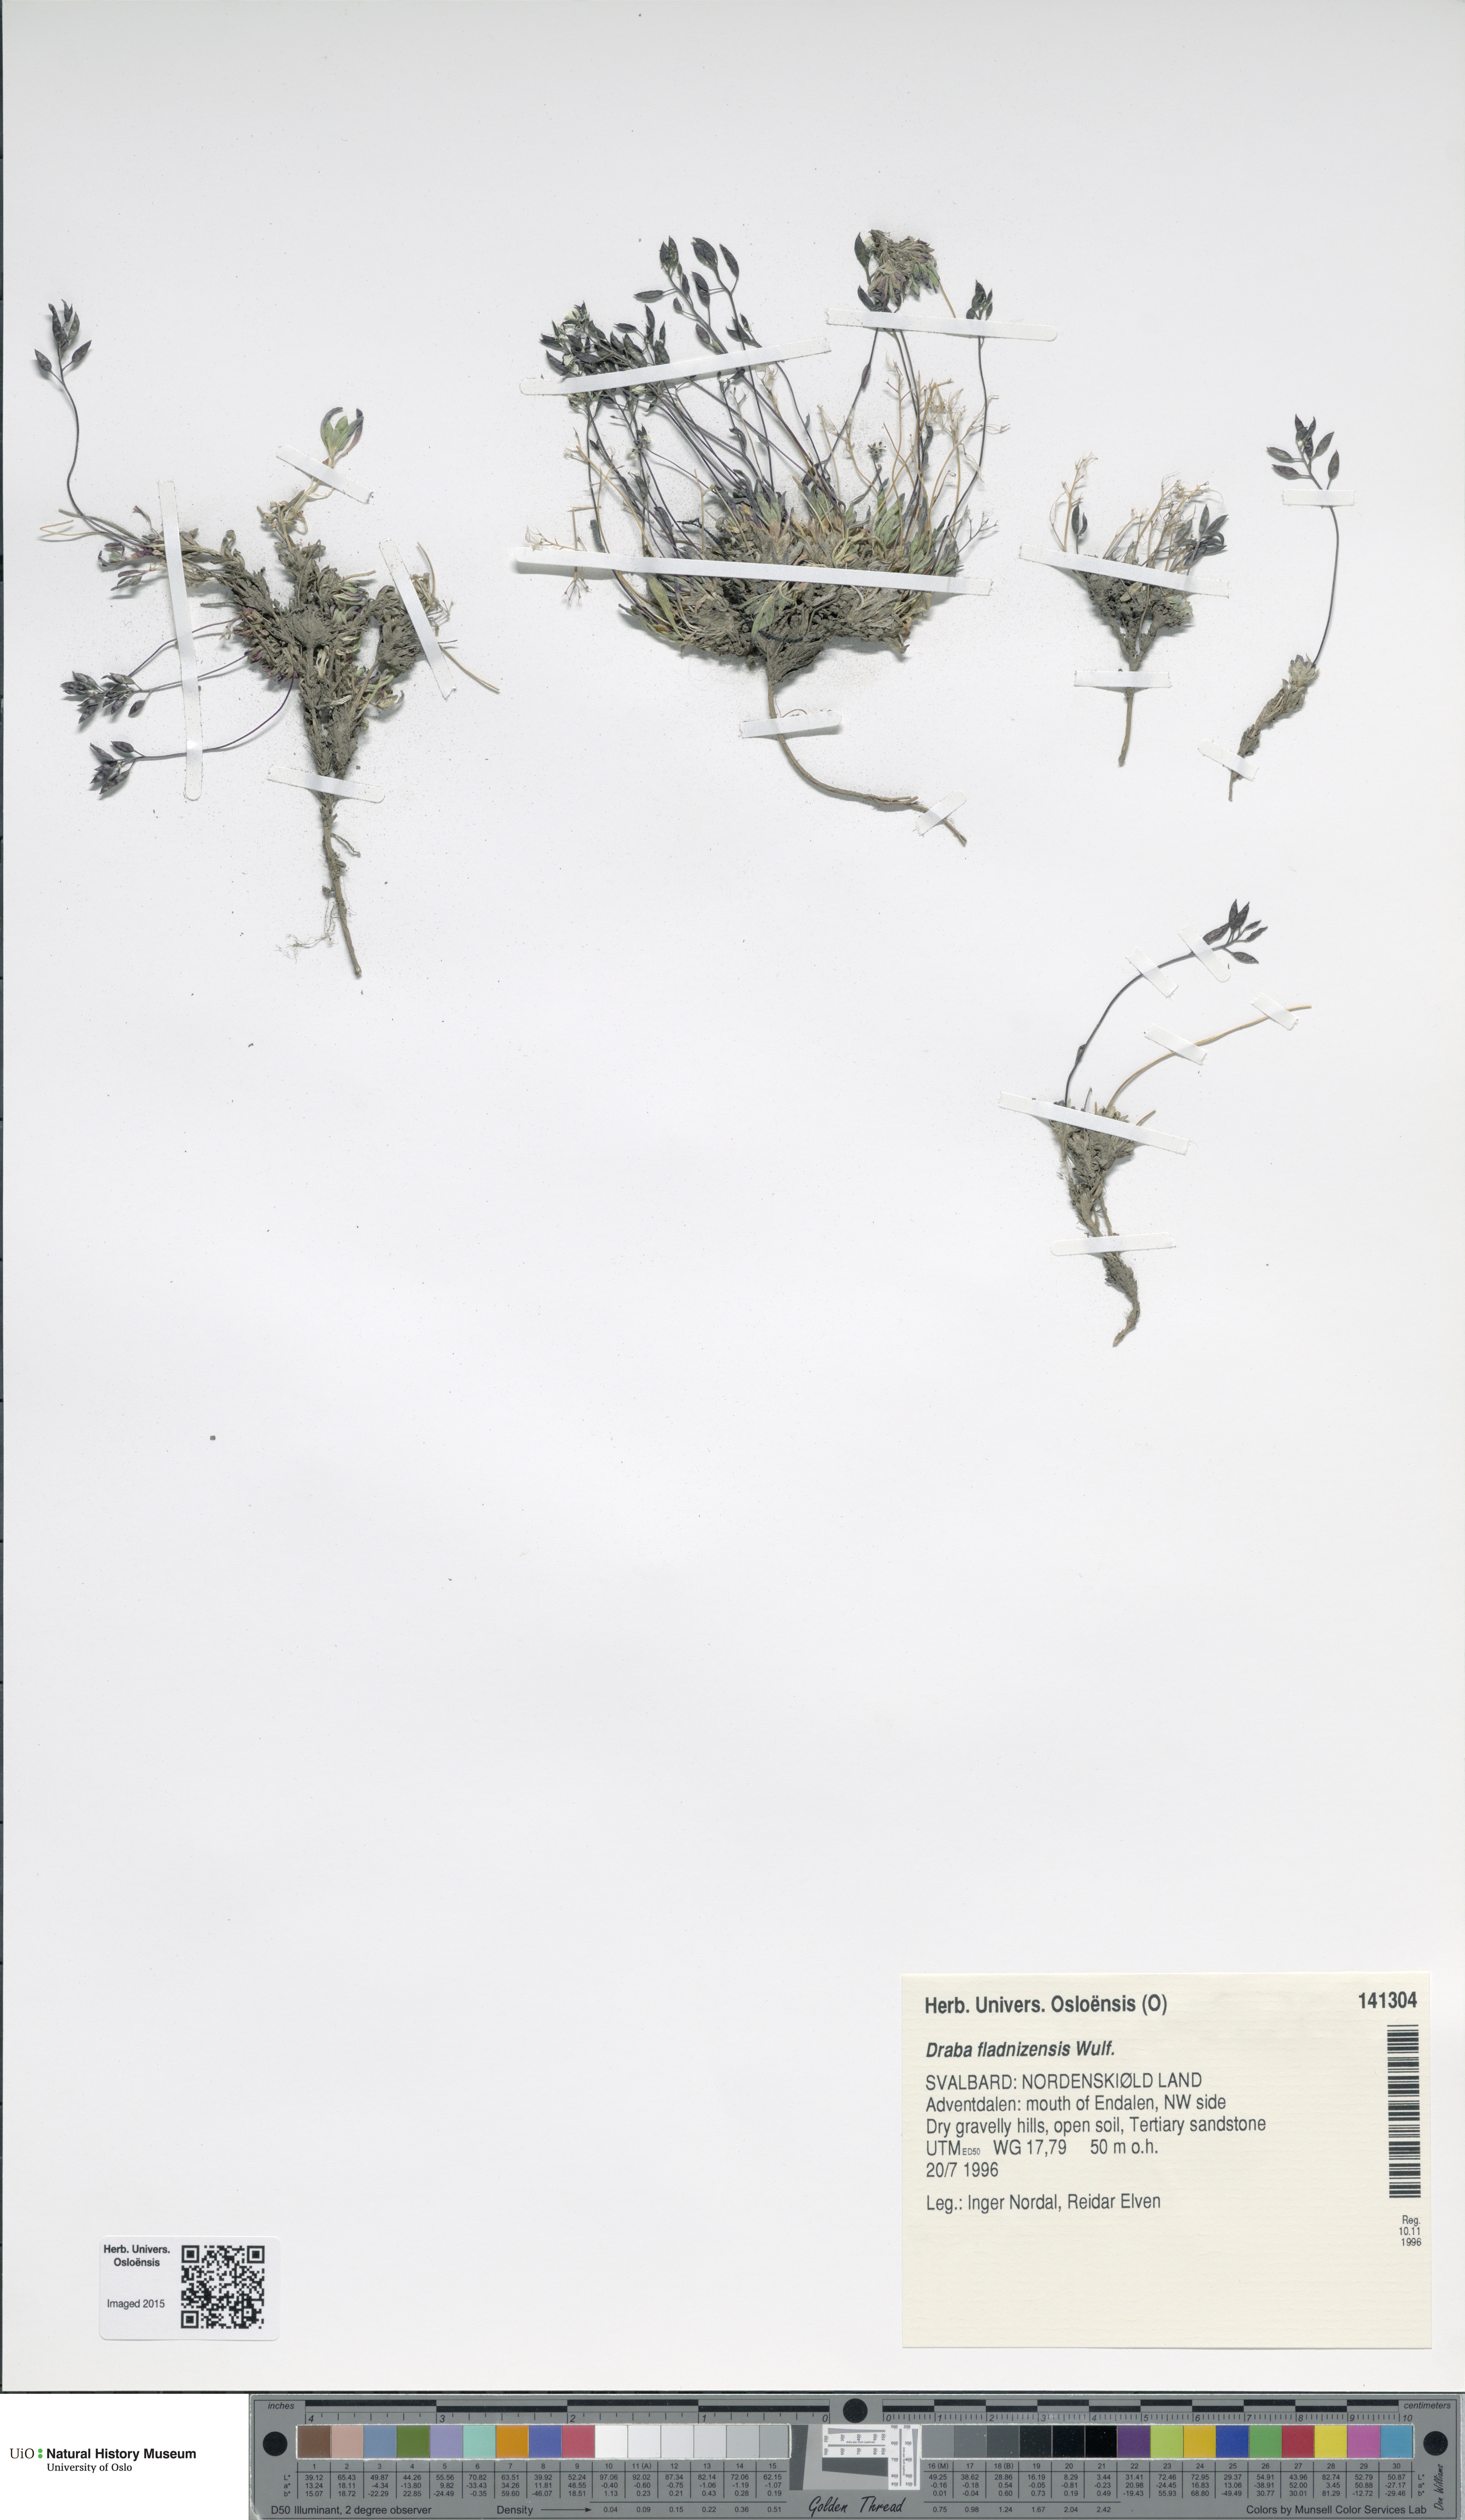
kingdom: Plantae
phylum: Tracheophyta
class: Magnoliopsida
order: Brassicales
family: Brassicaceae
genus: Draba
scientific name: Draba fladnizensis
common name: Austrian draba
